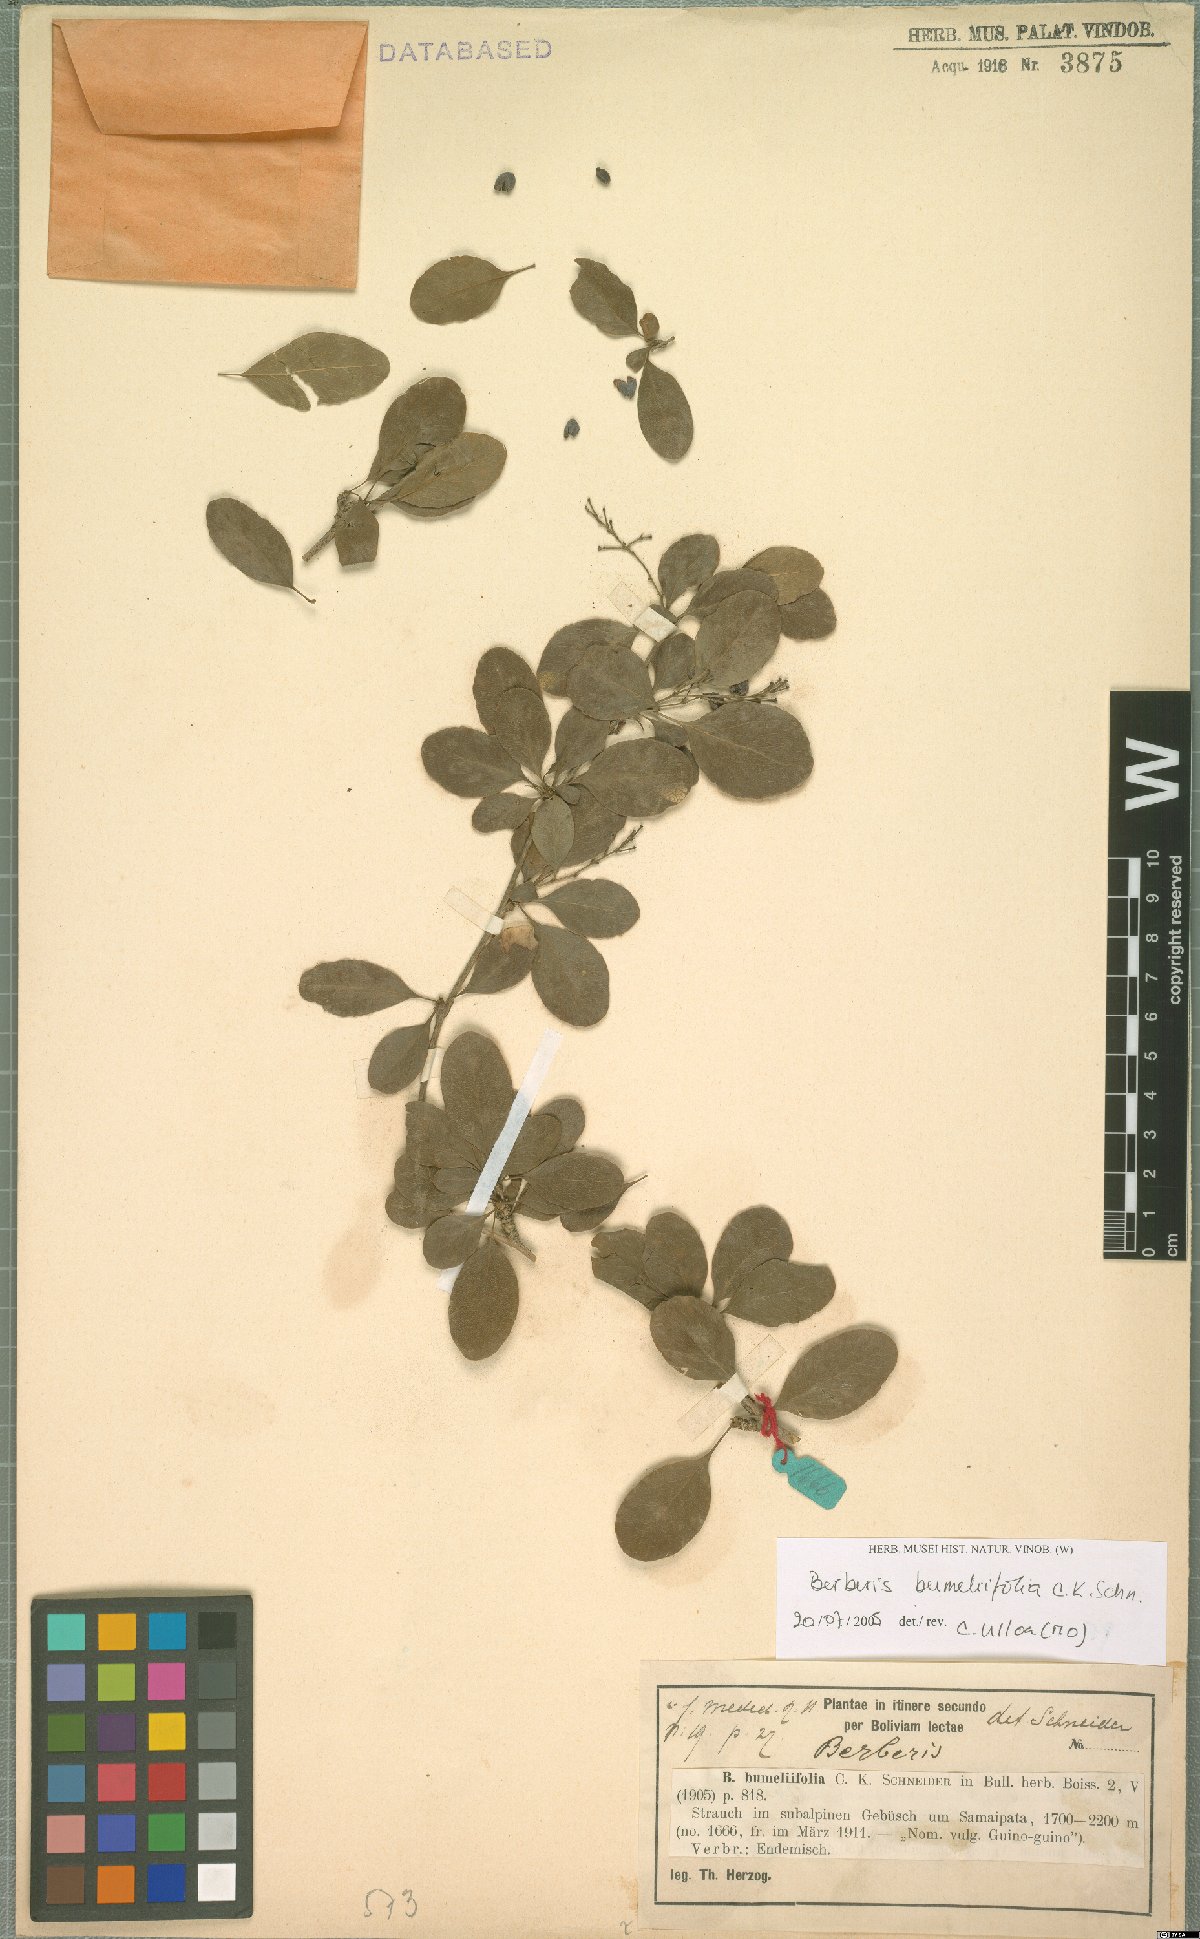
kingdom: Plantae
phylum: Tracheophyta
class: Magnoliopsida
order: Ranunculales
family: Berberidaceae
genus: Berberis
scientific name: Berberis bumeliifolia
